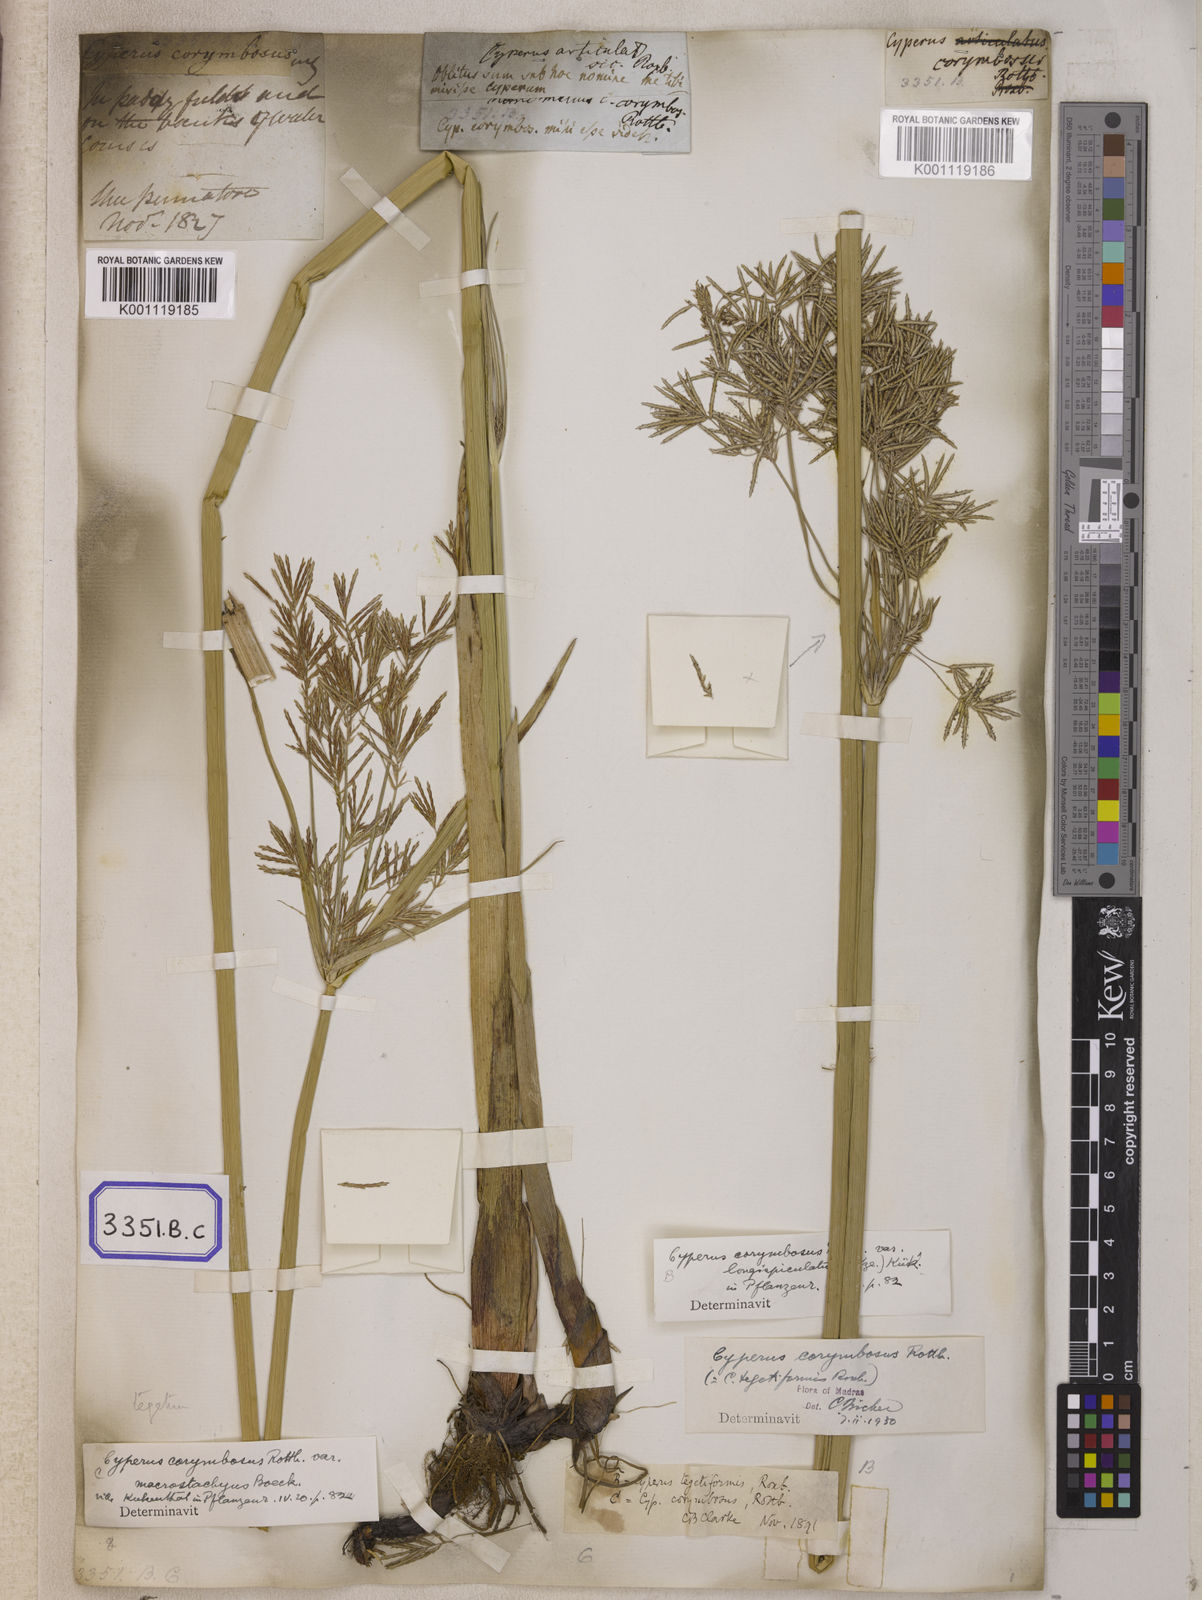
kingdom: Plantae
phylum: Tracheophyta
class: Liliopsida
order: Poales
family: Cyperaceae
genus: Cyperus
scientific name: Cyperus
